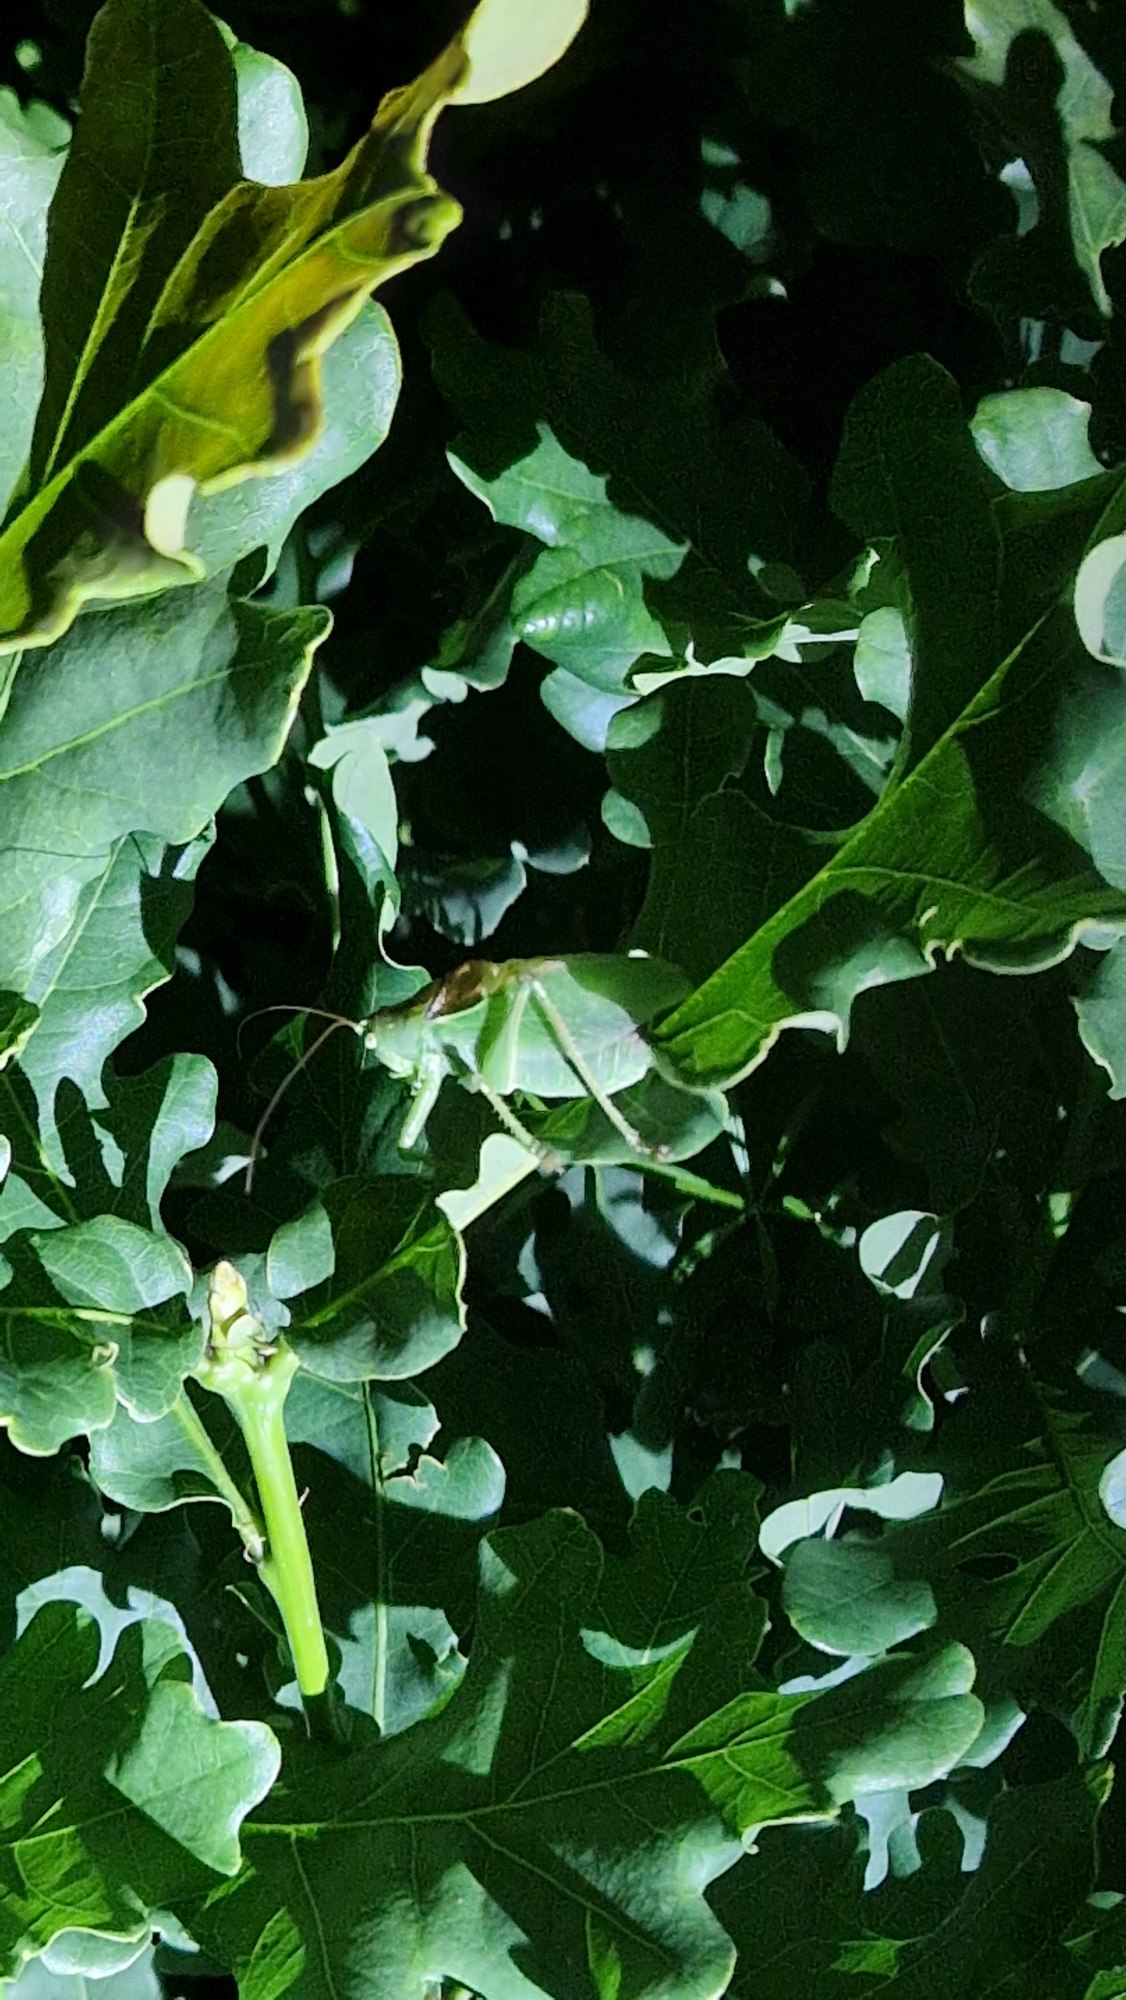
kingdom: Animalia
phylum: Arthropoda
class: Insecta
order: Orthoptera
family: Tettigoniidae
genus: Tettigonia
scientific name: Tettigonia cantans
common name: Syngende løvgræshoppe
